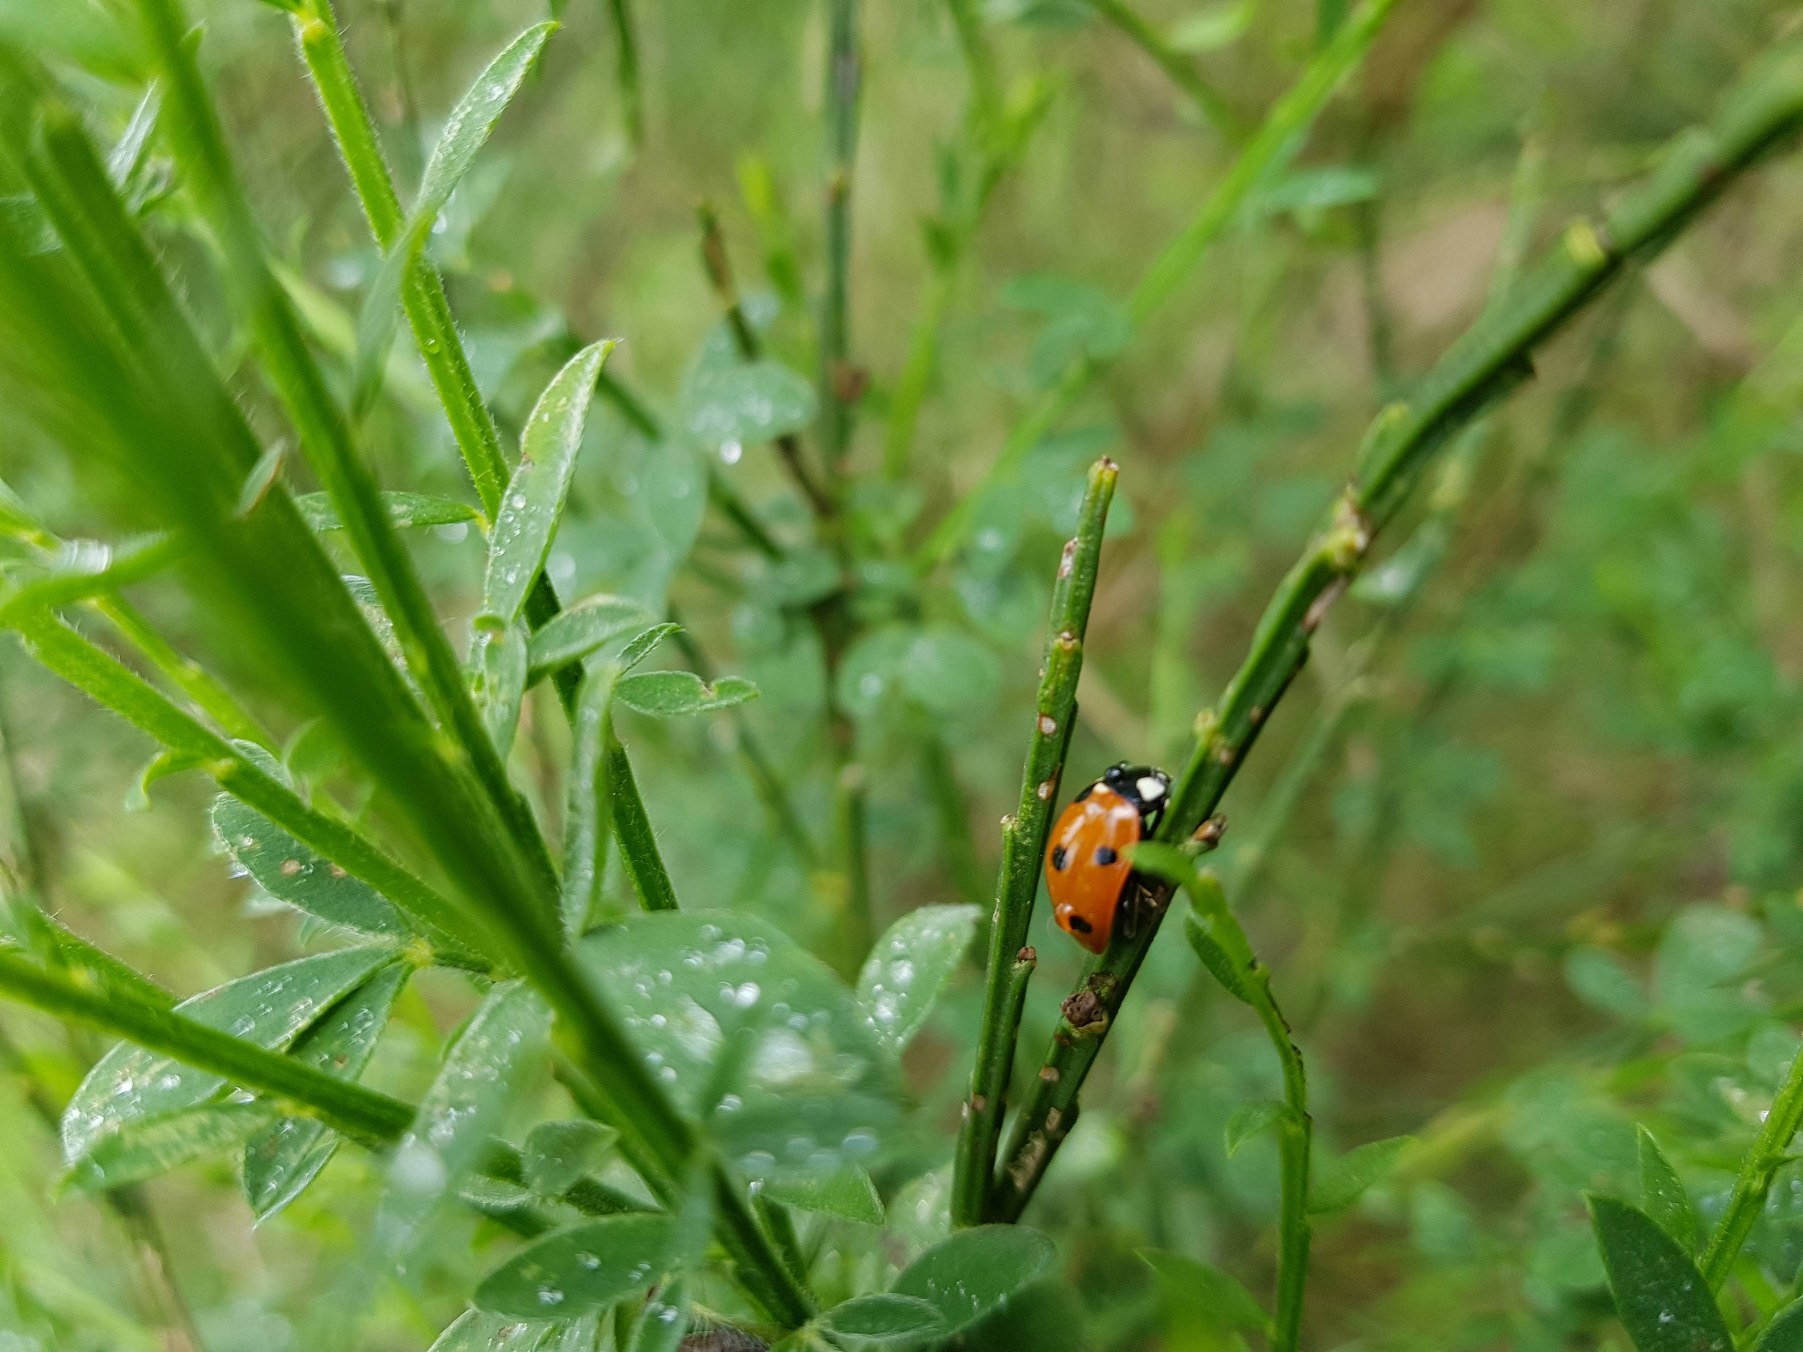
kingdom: Animalia
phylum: Arthropoda
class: Insecta
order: Coleoptera
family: Coccinellidae
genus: Coccinella
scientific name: Coccinella septempunctata
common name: Syvplettet mariehøne
